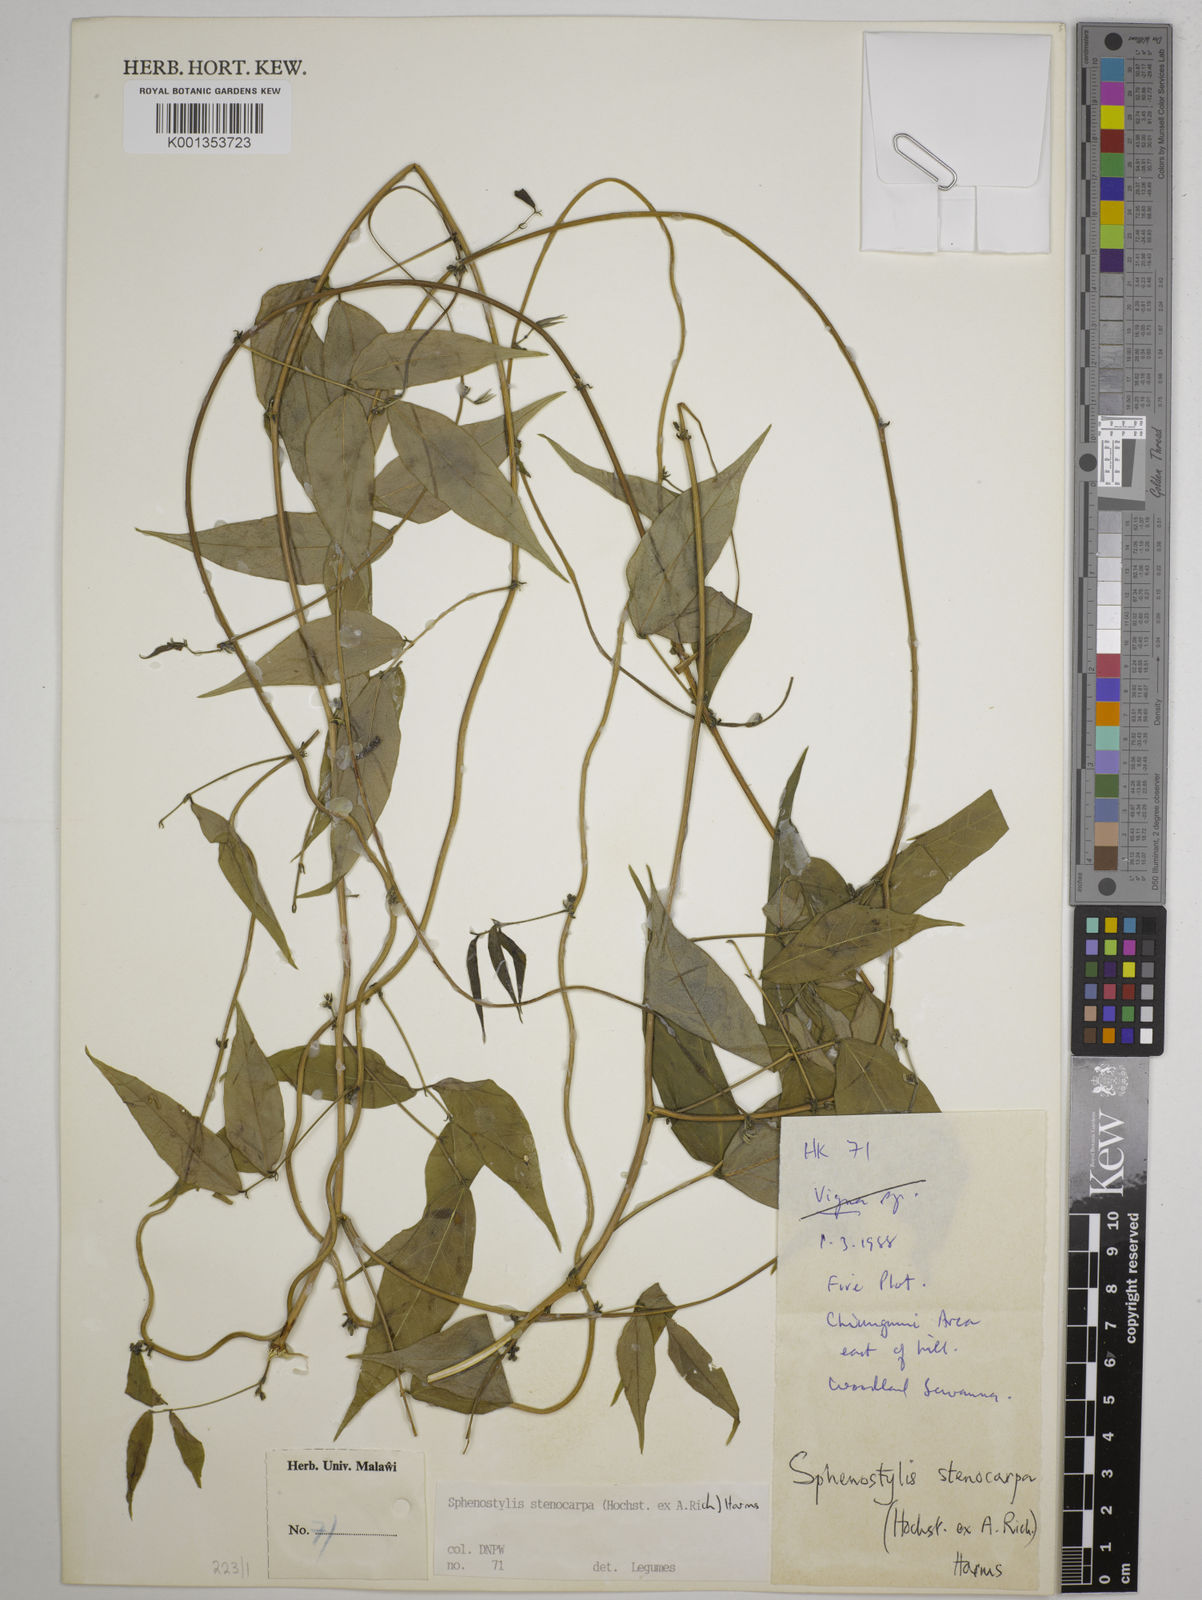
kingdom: Plantae
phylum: Tracheophyta
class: Magnoliopsida
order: Fabales
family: Fabaceae
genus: Sphenostylis
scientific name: Sphenostylis stenocarpa
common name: Yam-pea
